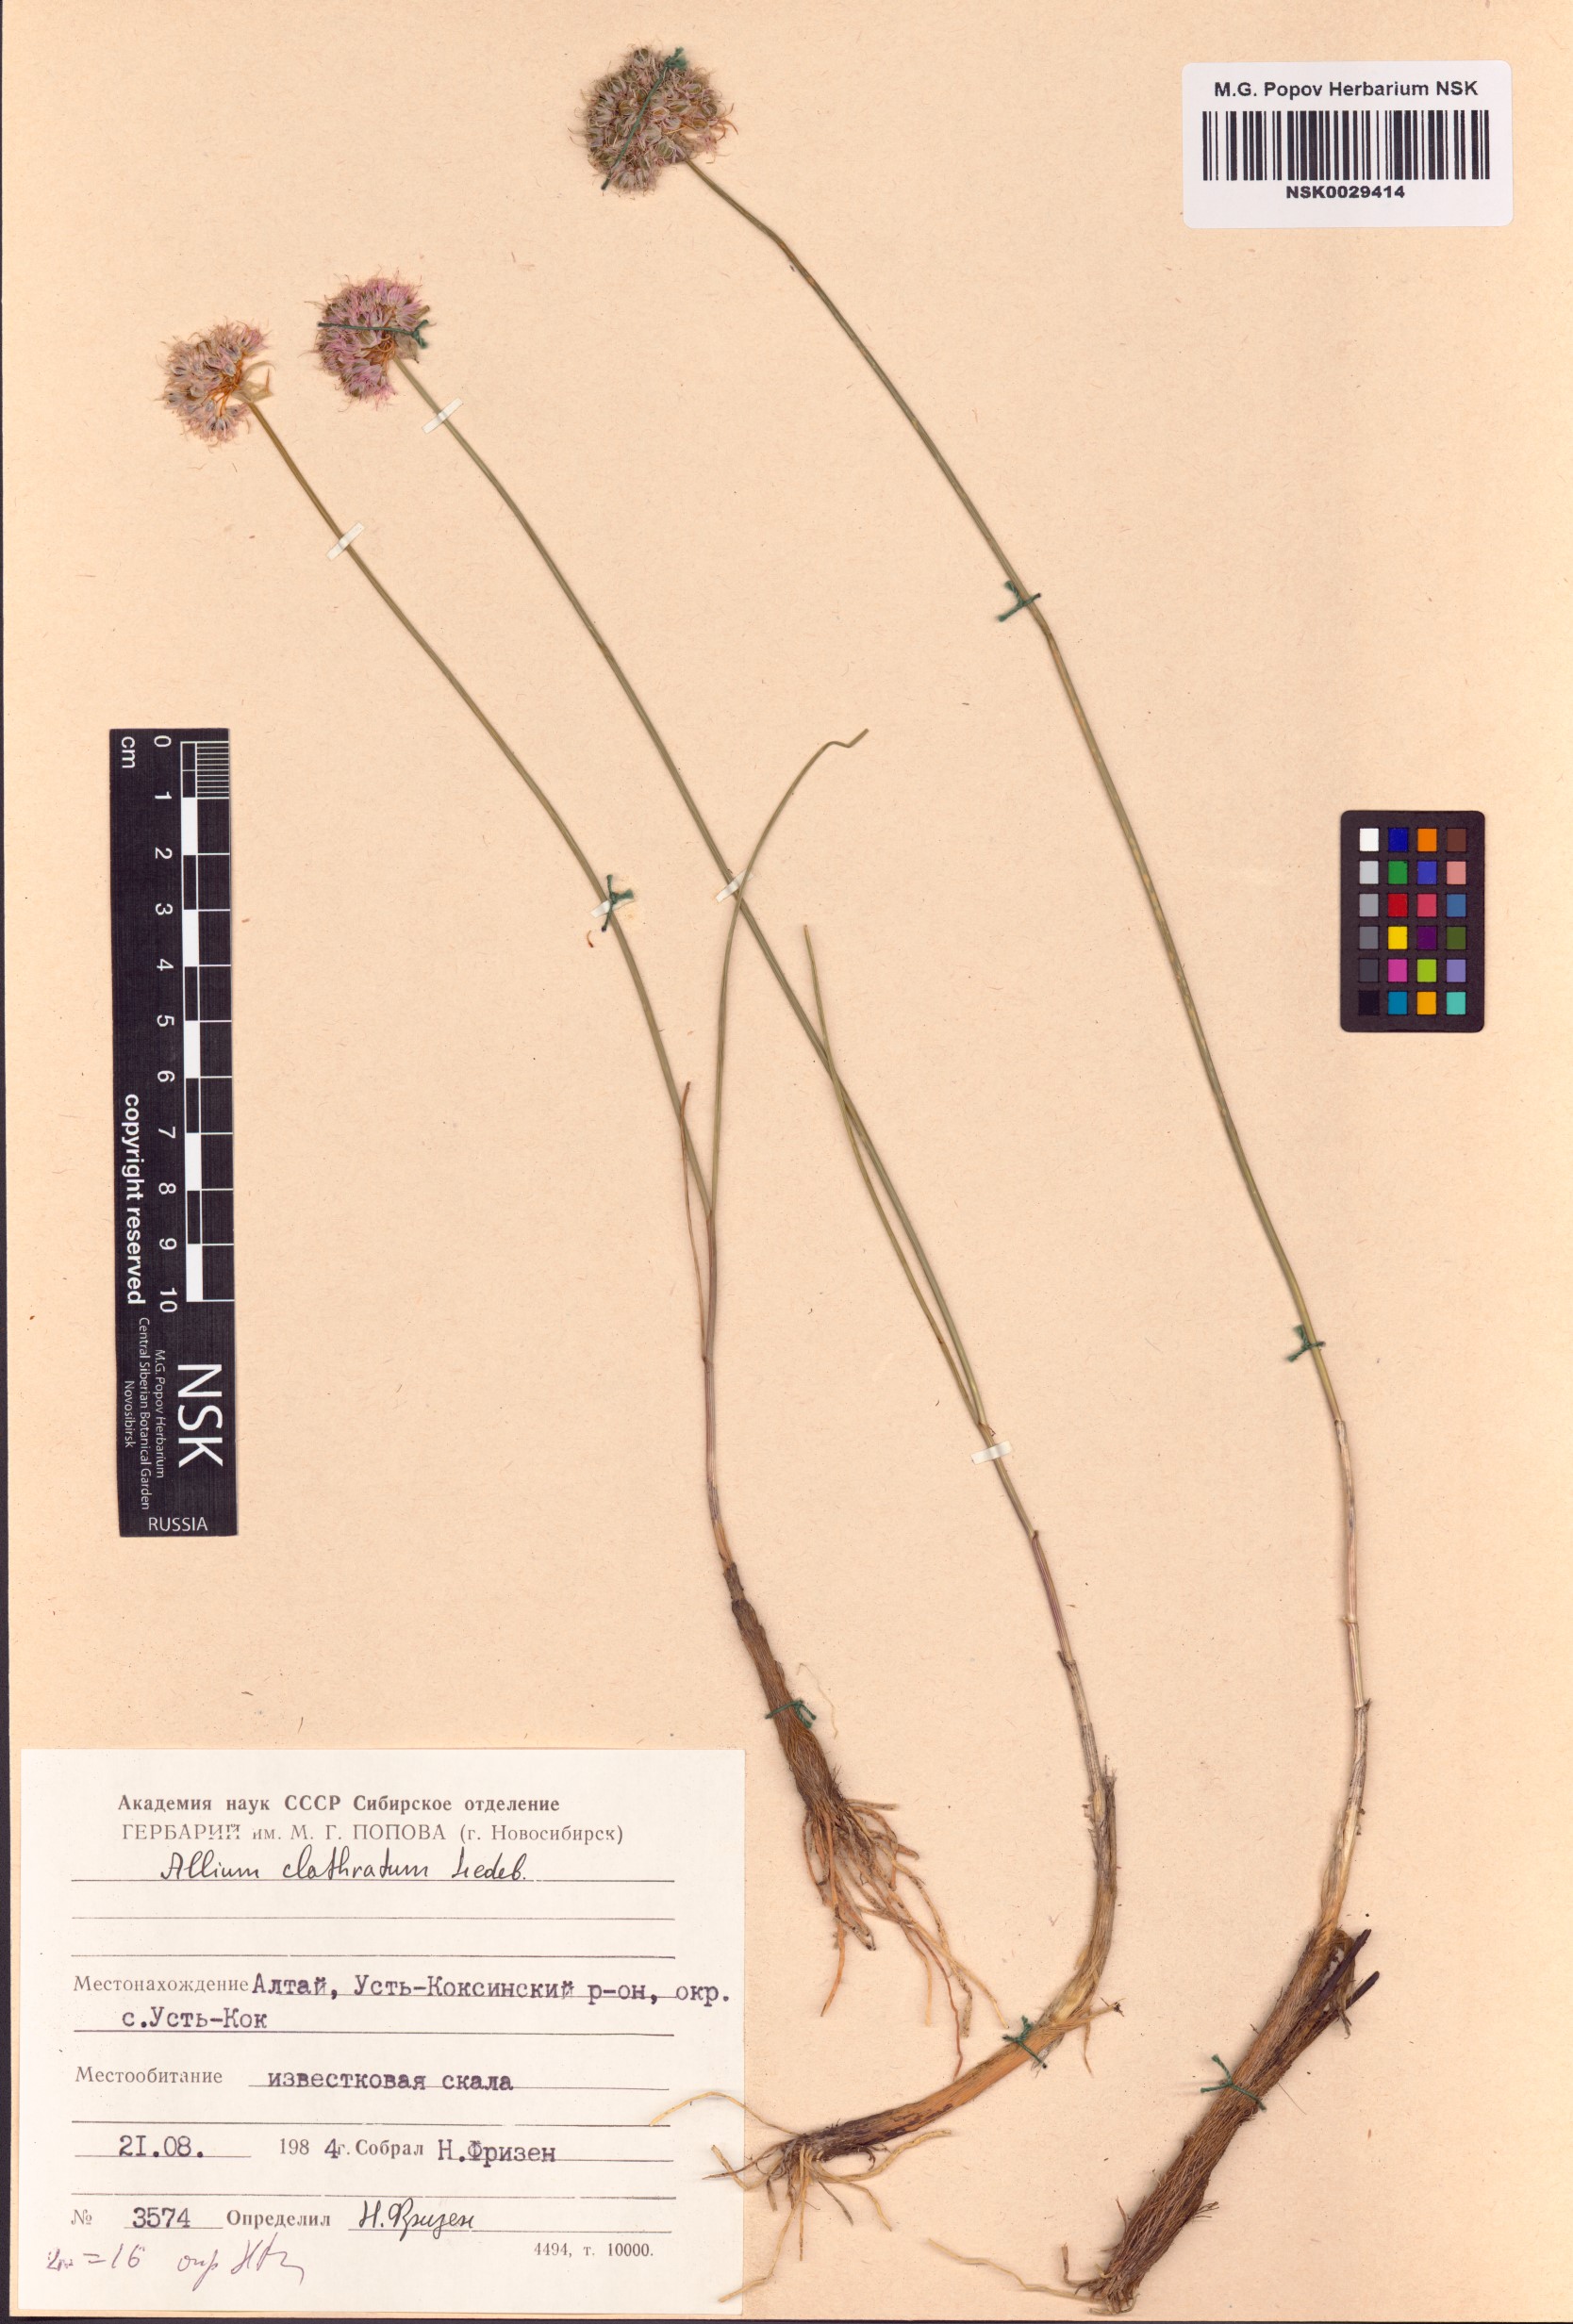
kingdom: Plantae
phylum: Tracheophyta
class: Liliopsida
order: Asparagales
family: Amaryllidaceae
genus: Allium
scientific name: Allium clathratum
